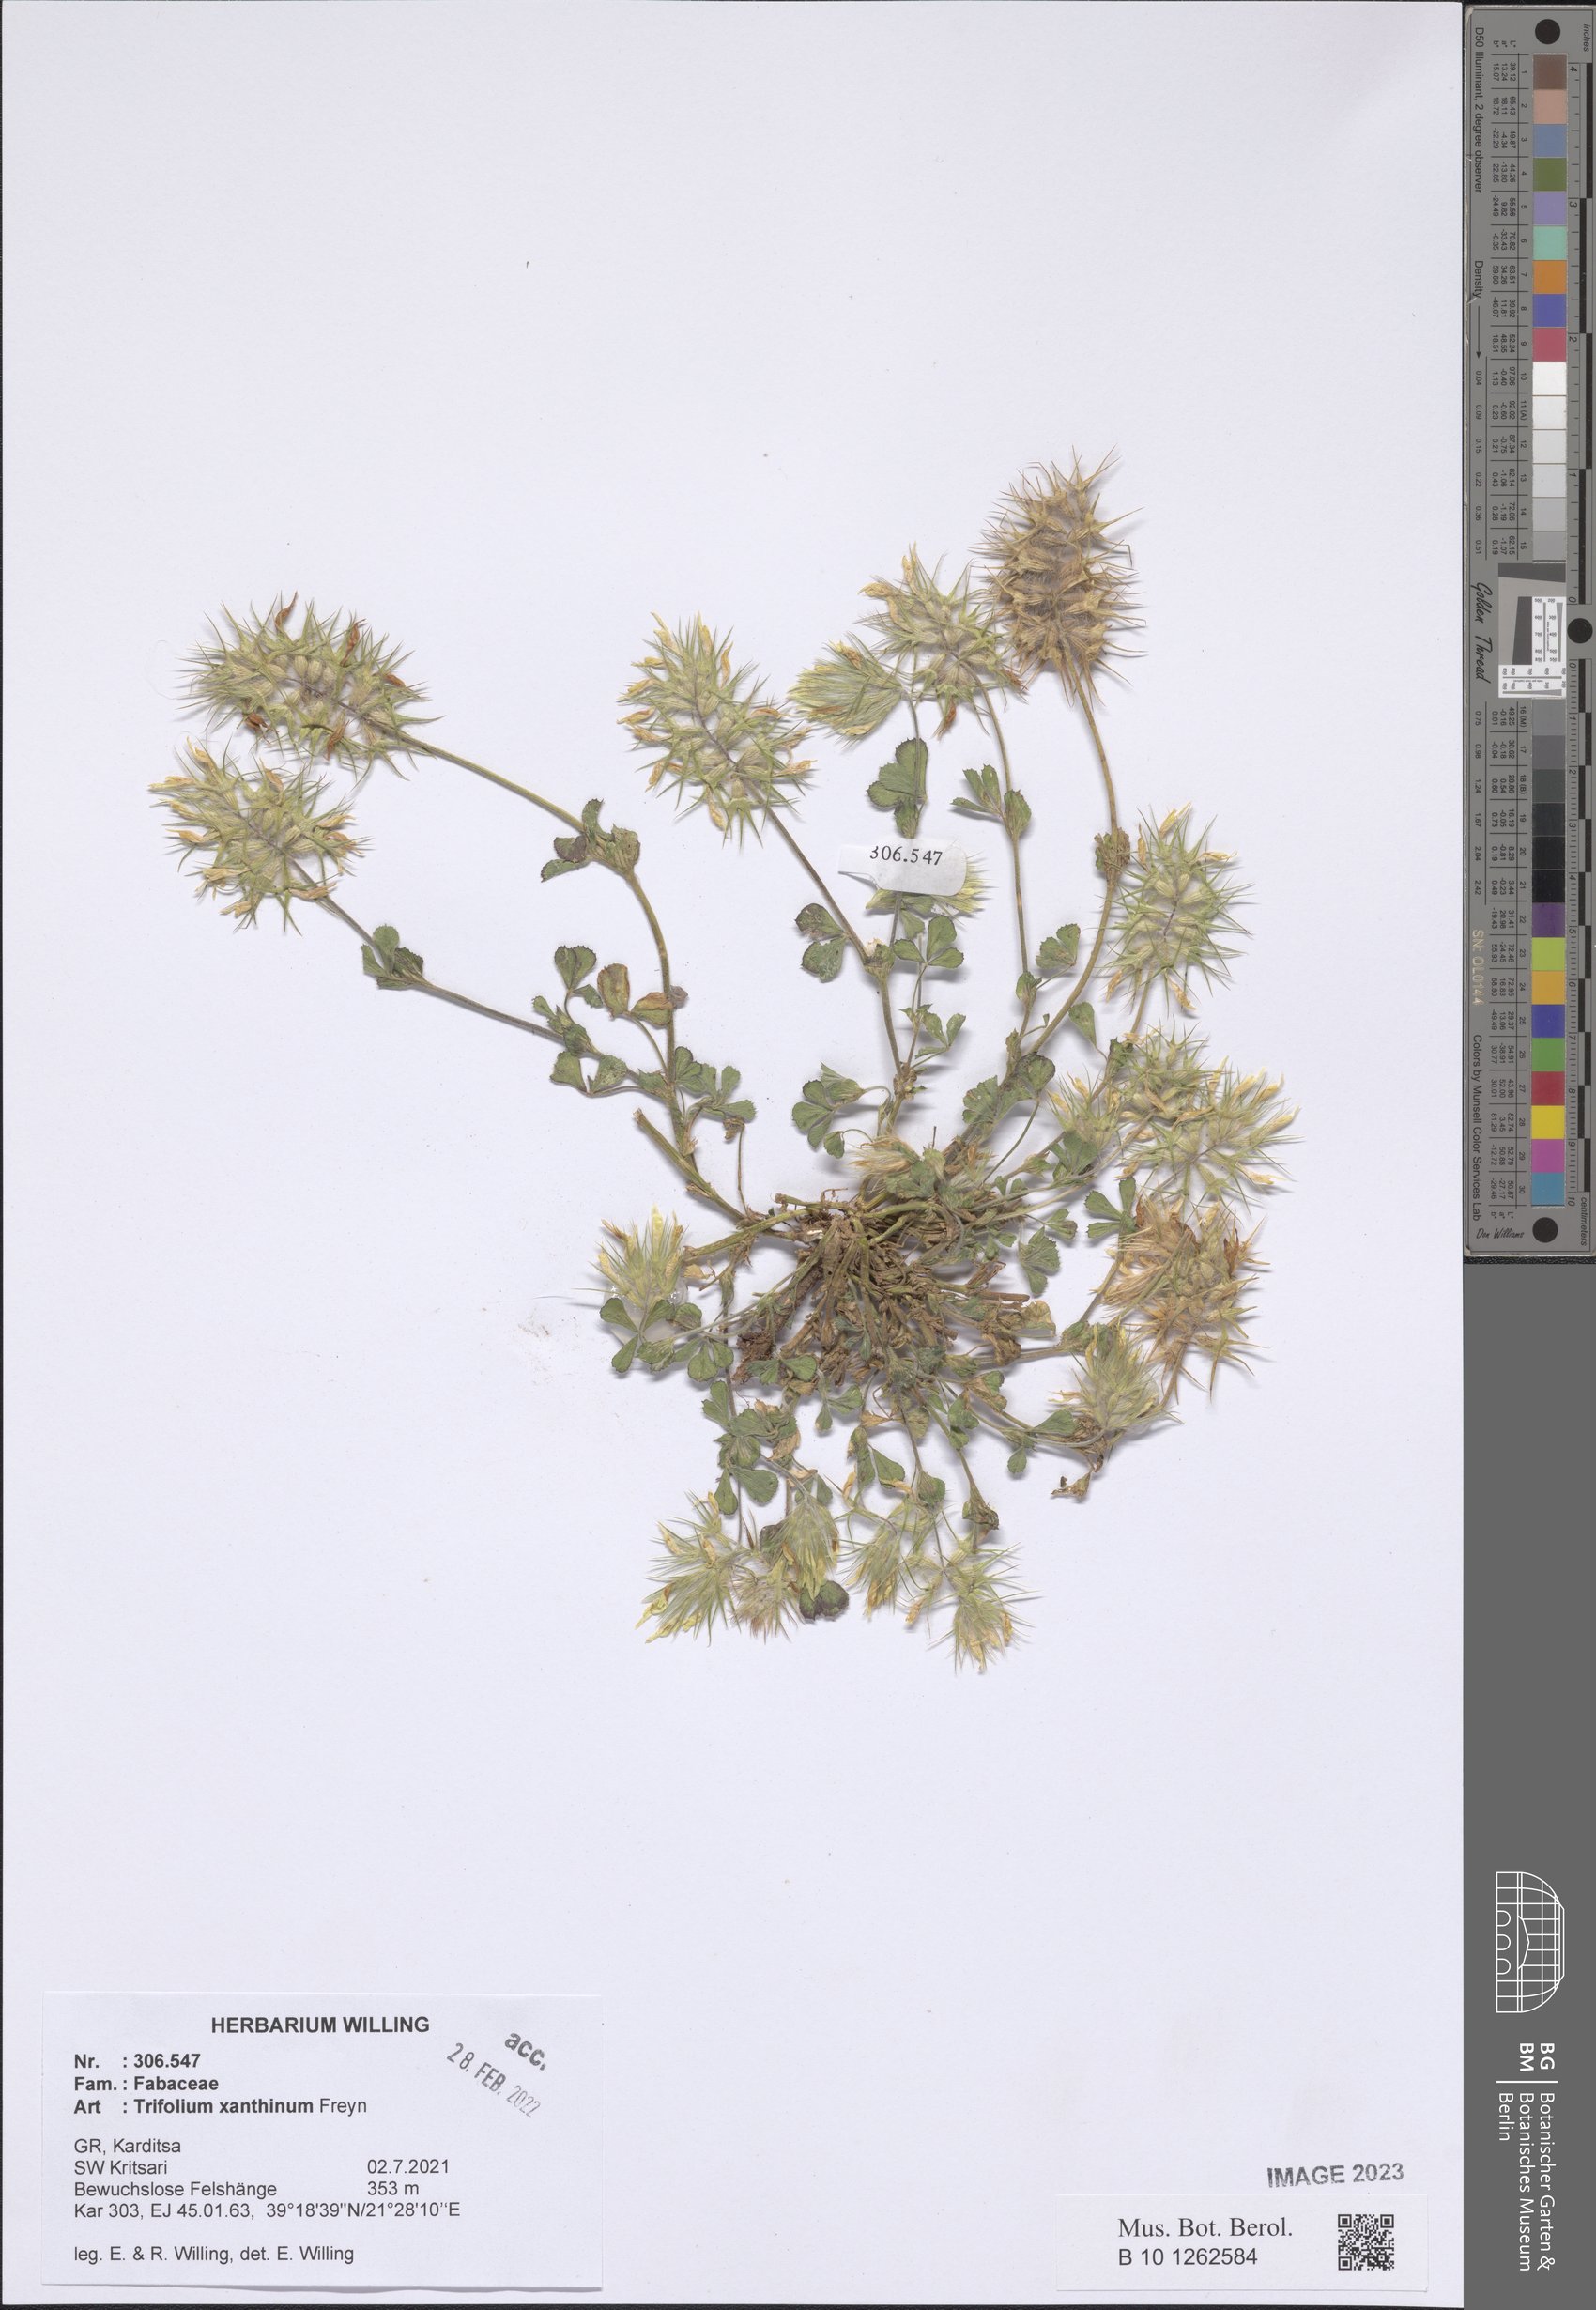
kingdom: Plantae
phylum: Tracheophyta
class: Magnoliopsida
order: Fabales
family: Fabaceae
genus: Trifolium
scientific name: Trifolium xanthinum
